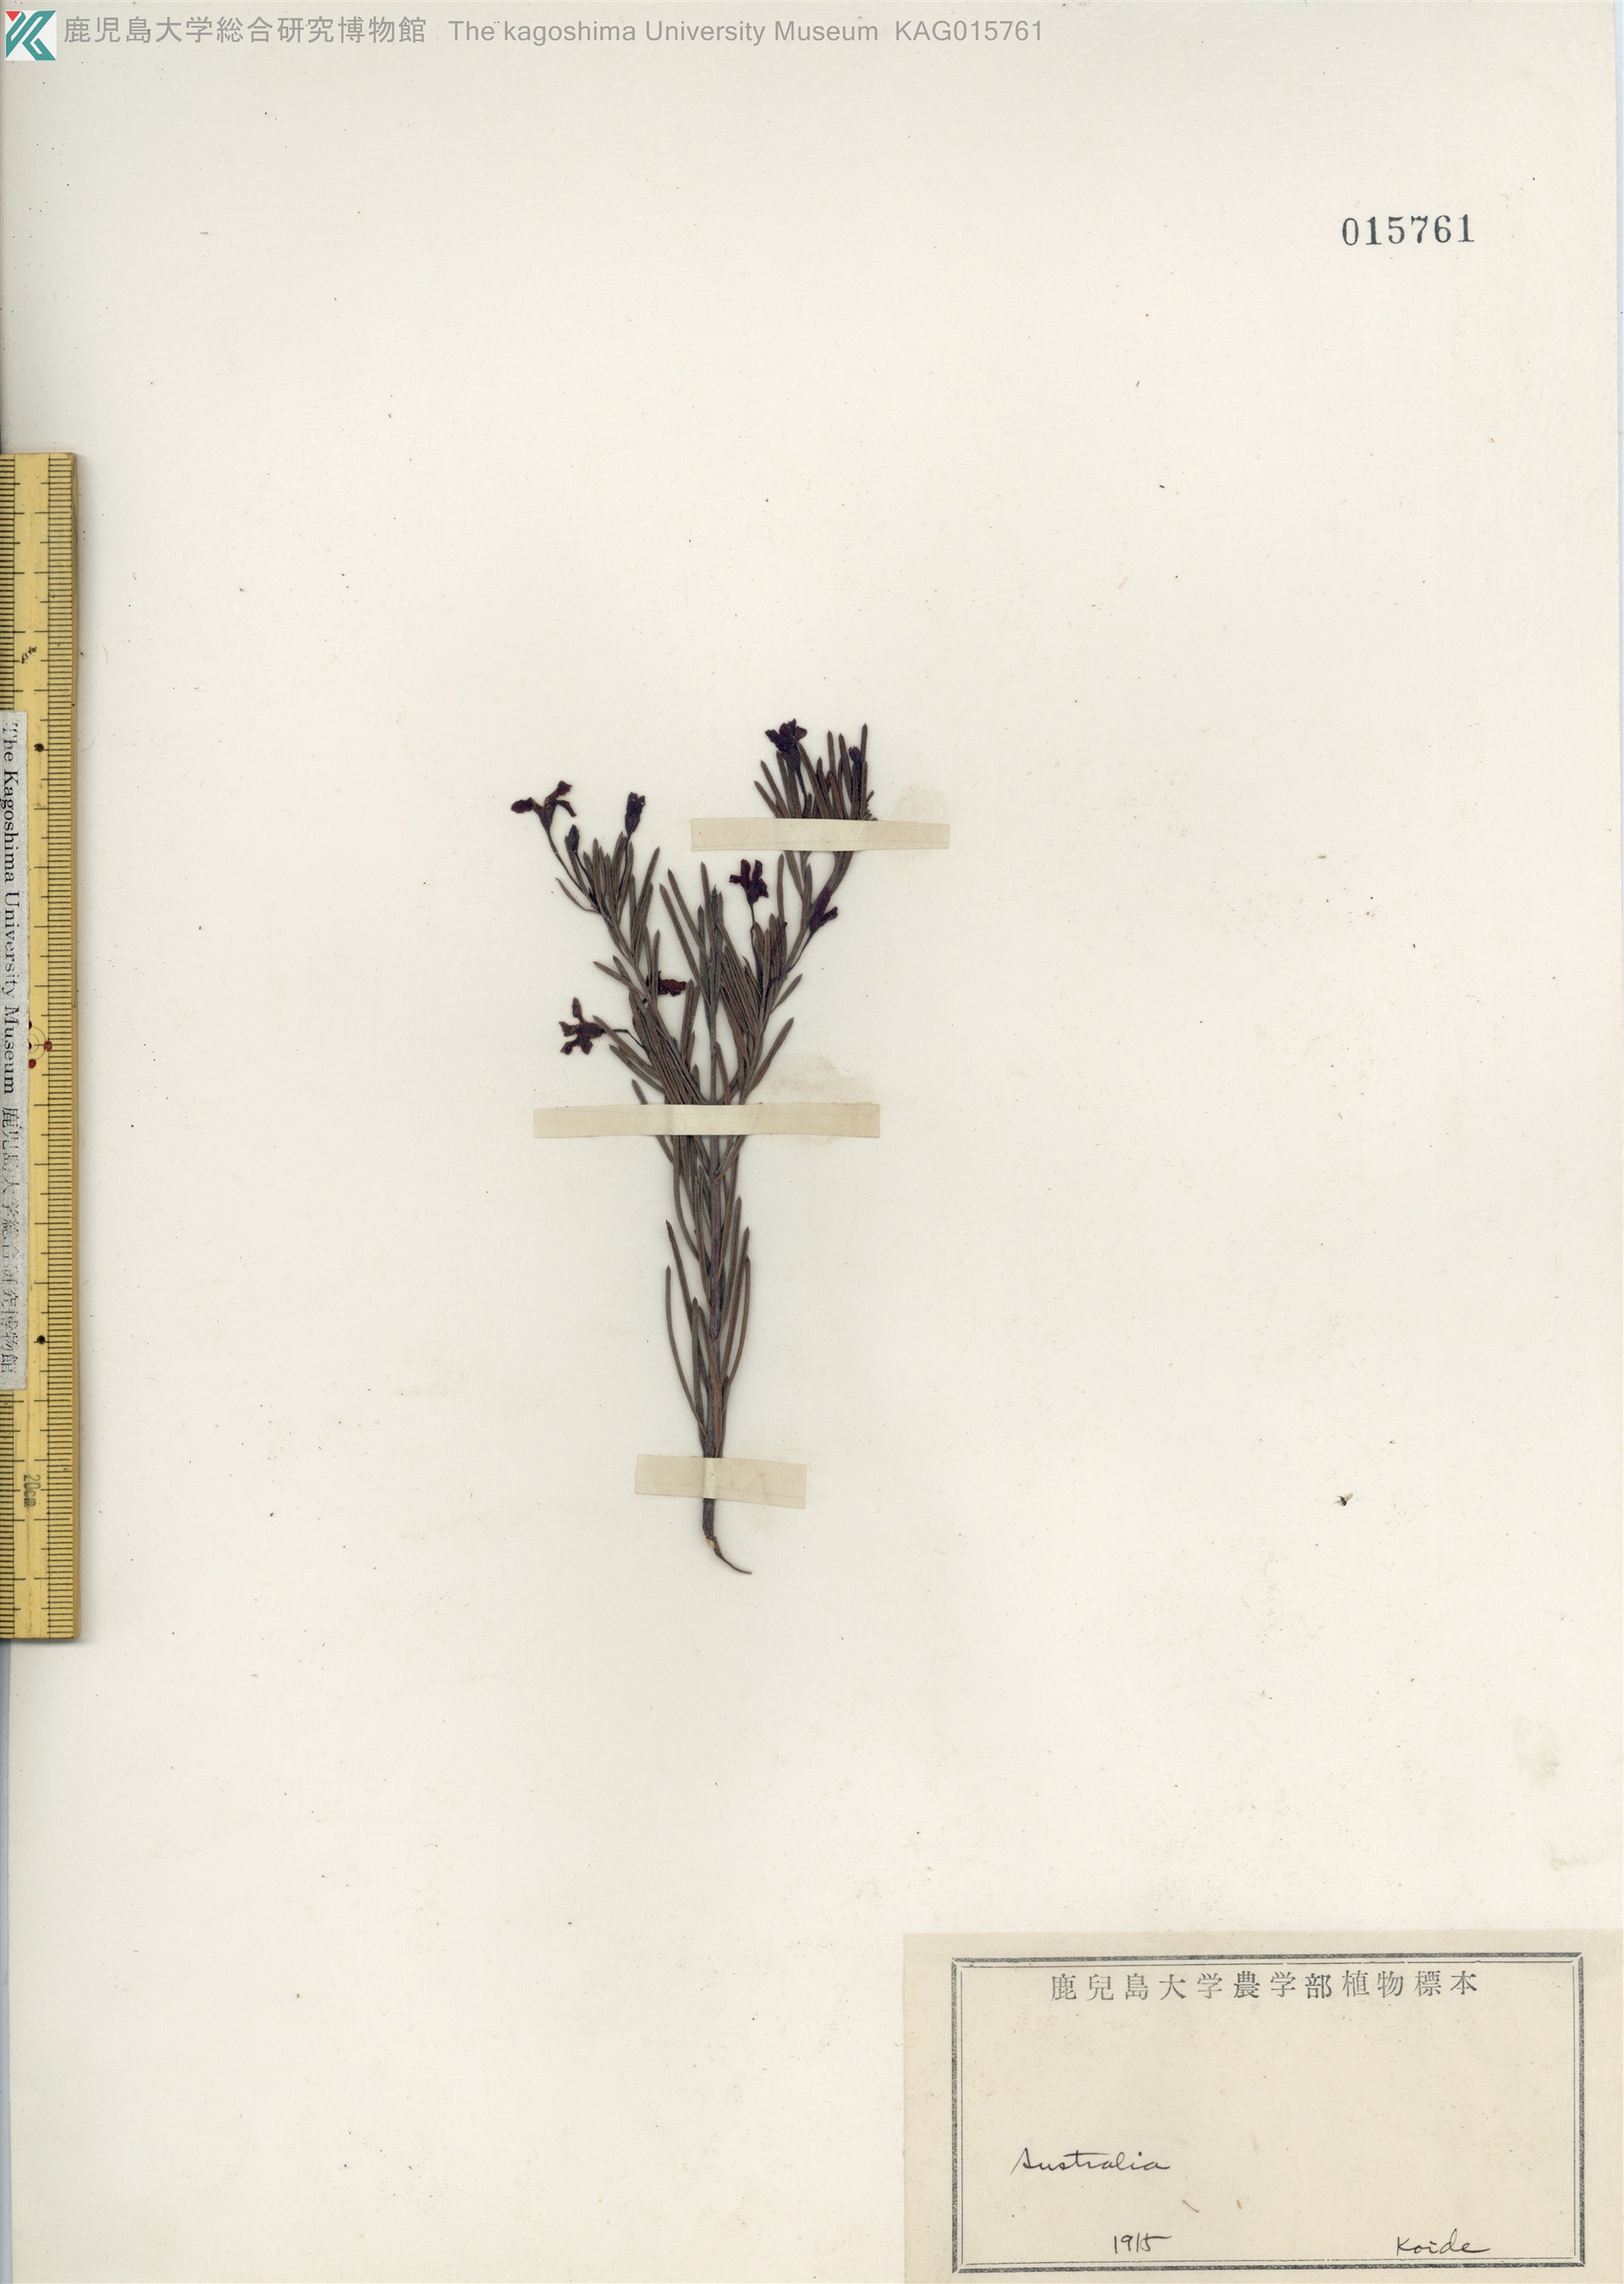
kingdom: Plantae
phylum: Tracheophyta
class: Magnoliopsida
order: Asterales
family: Goodeniaceae
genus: Dampiera
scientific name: Dampiera
